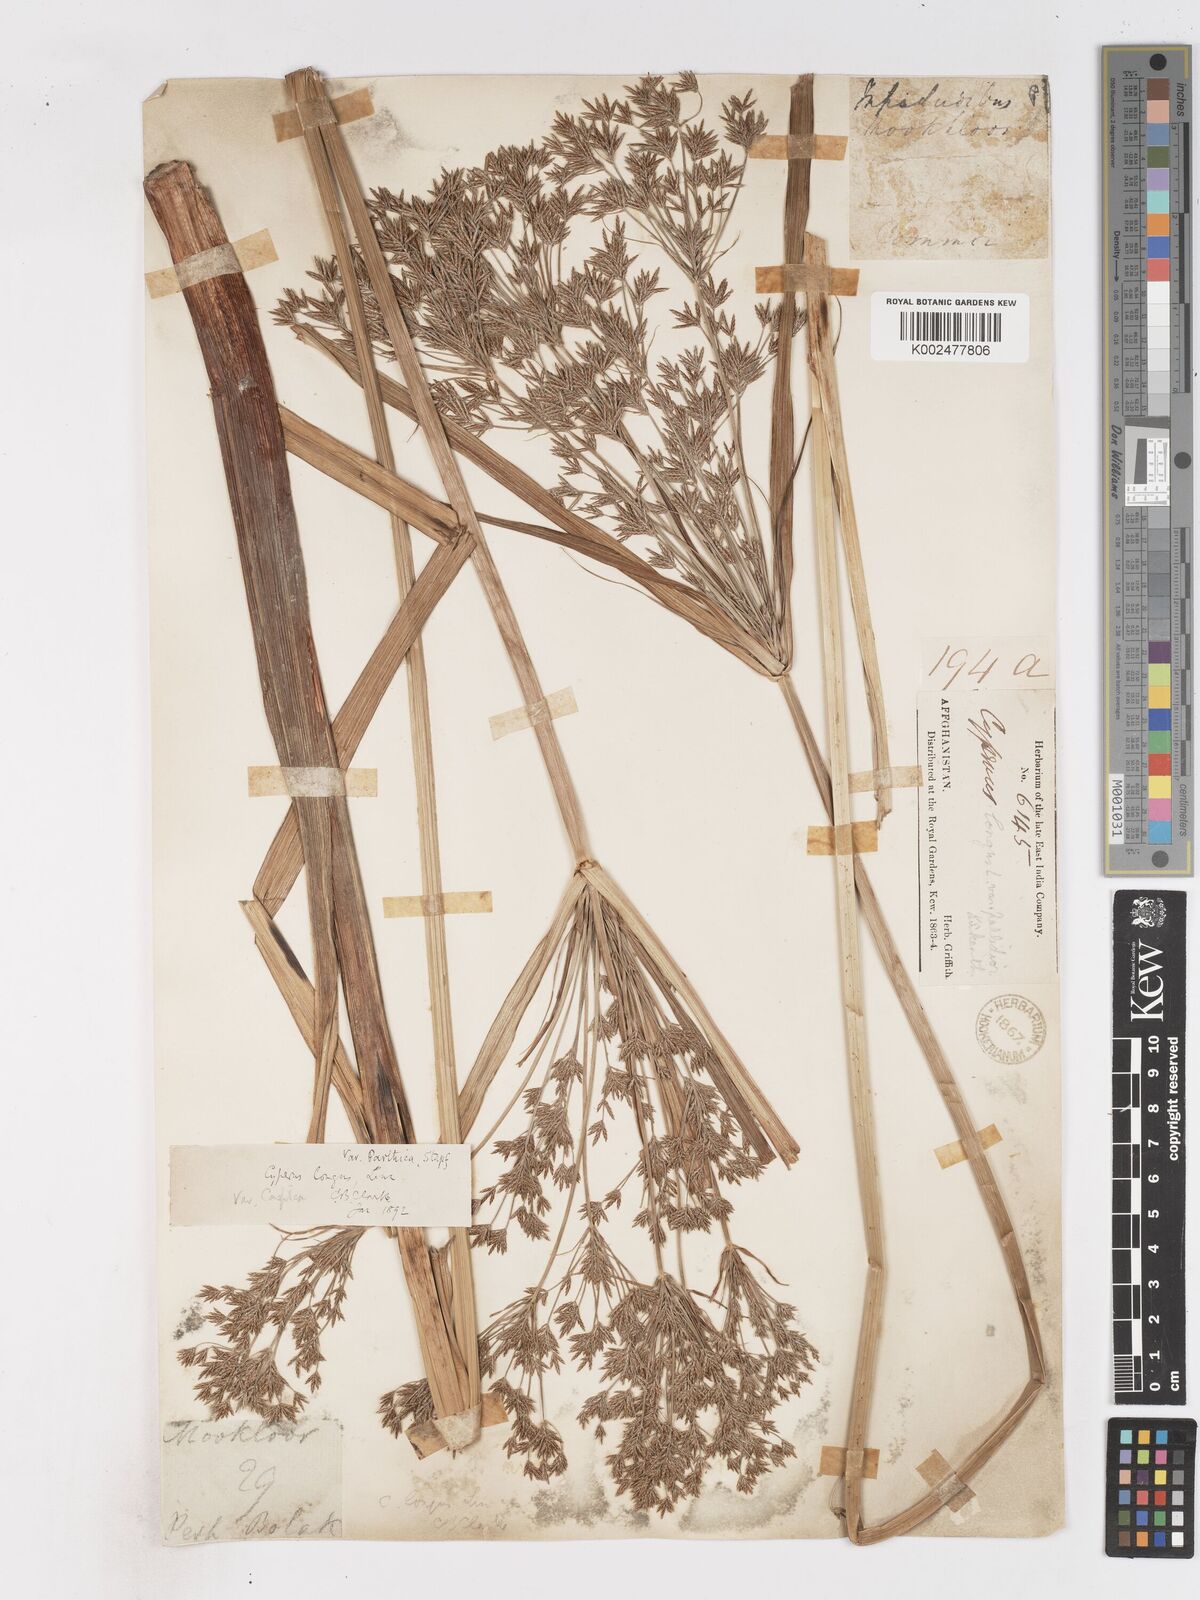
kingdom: Plantae
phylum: Tracheophyta
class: Liliopsida
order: Poales
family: Cyperaceae
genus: Cyperus
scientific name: Cyperus longus
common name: Galingale
